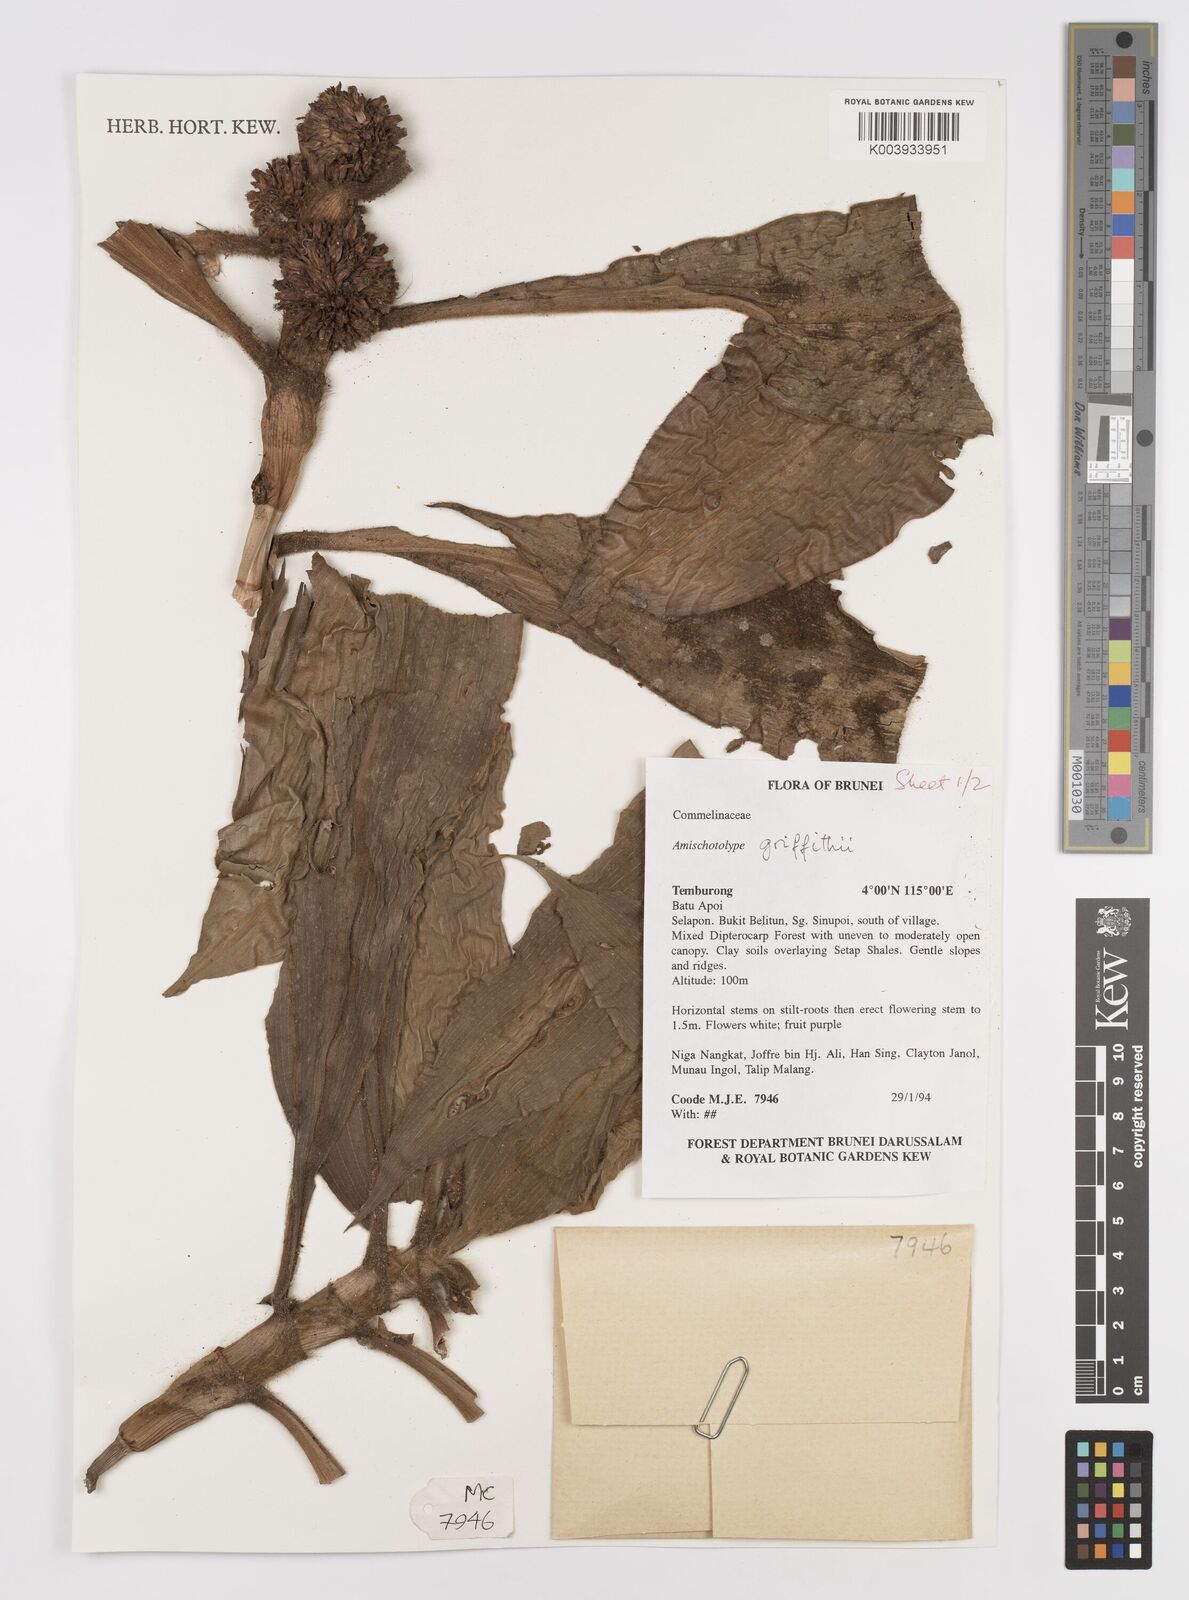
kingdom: Plantae
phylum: Tracheophyta
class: Liliopsida
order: Commelinales
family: Commelinaceae
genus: Amischotolype
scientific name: Amischotolype griffithii
